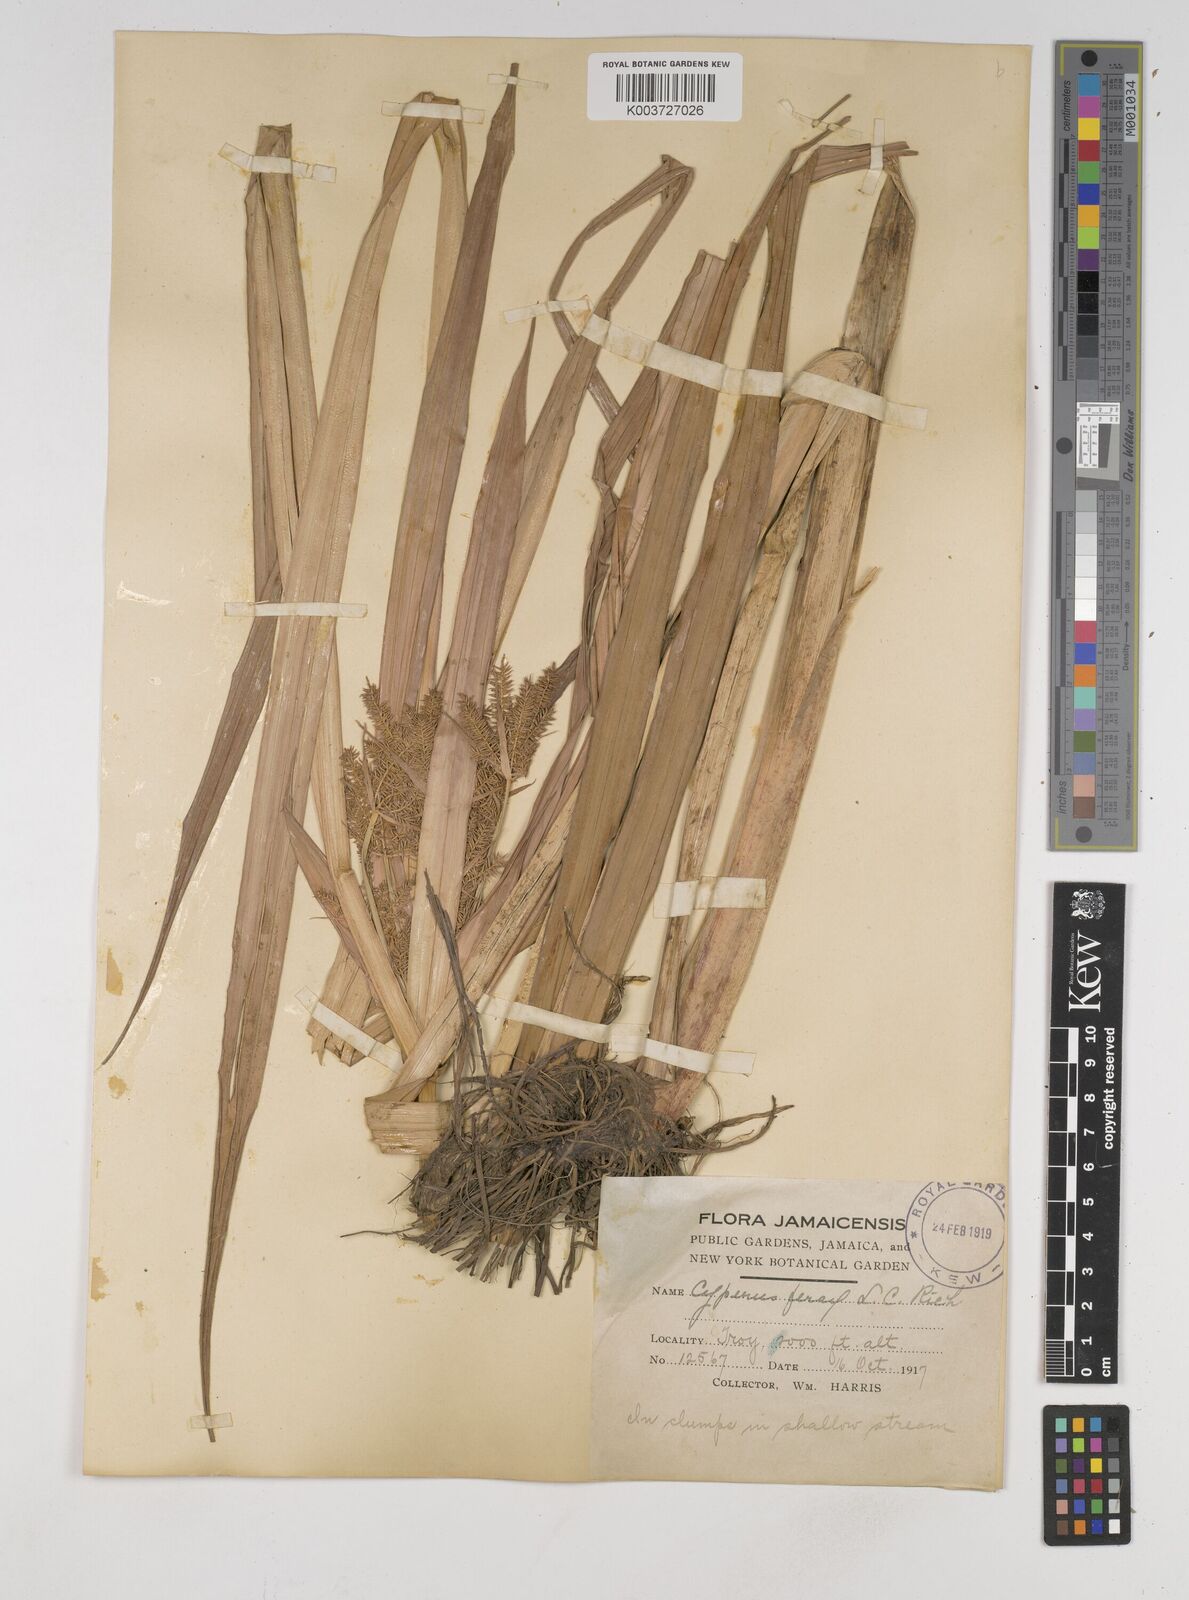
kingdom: Plantae
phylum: Tracheophyta
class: Liliopsida
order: Poales
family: Cyperaceae
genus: Cyperus
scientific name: Cyperus odoratus
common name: Fragrant flatsedge
